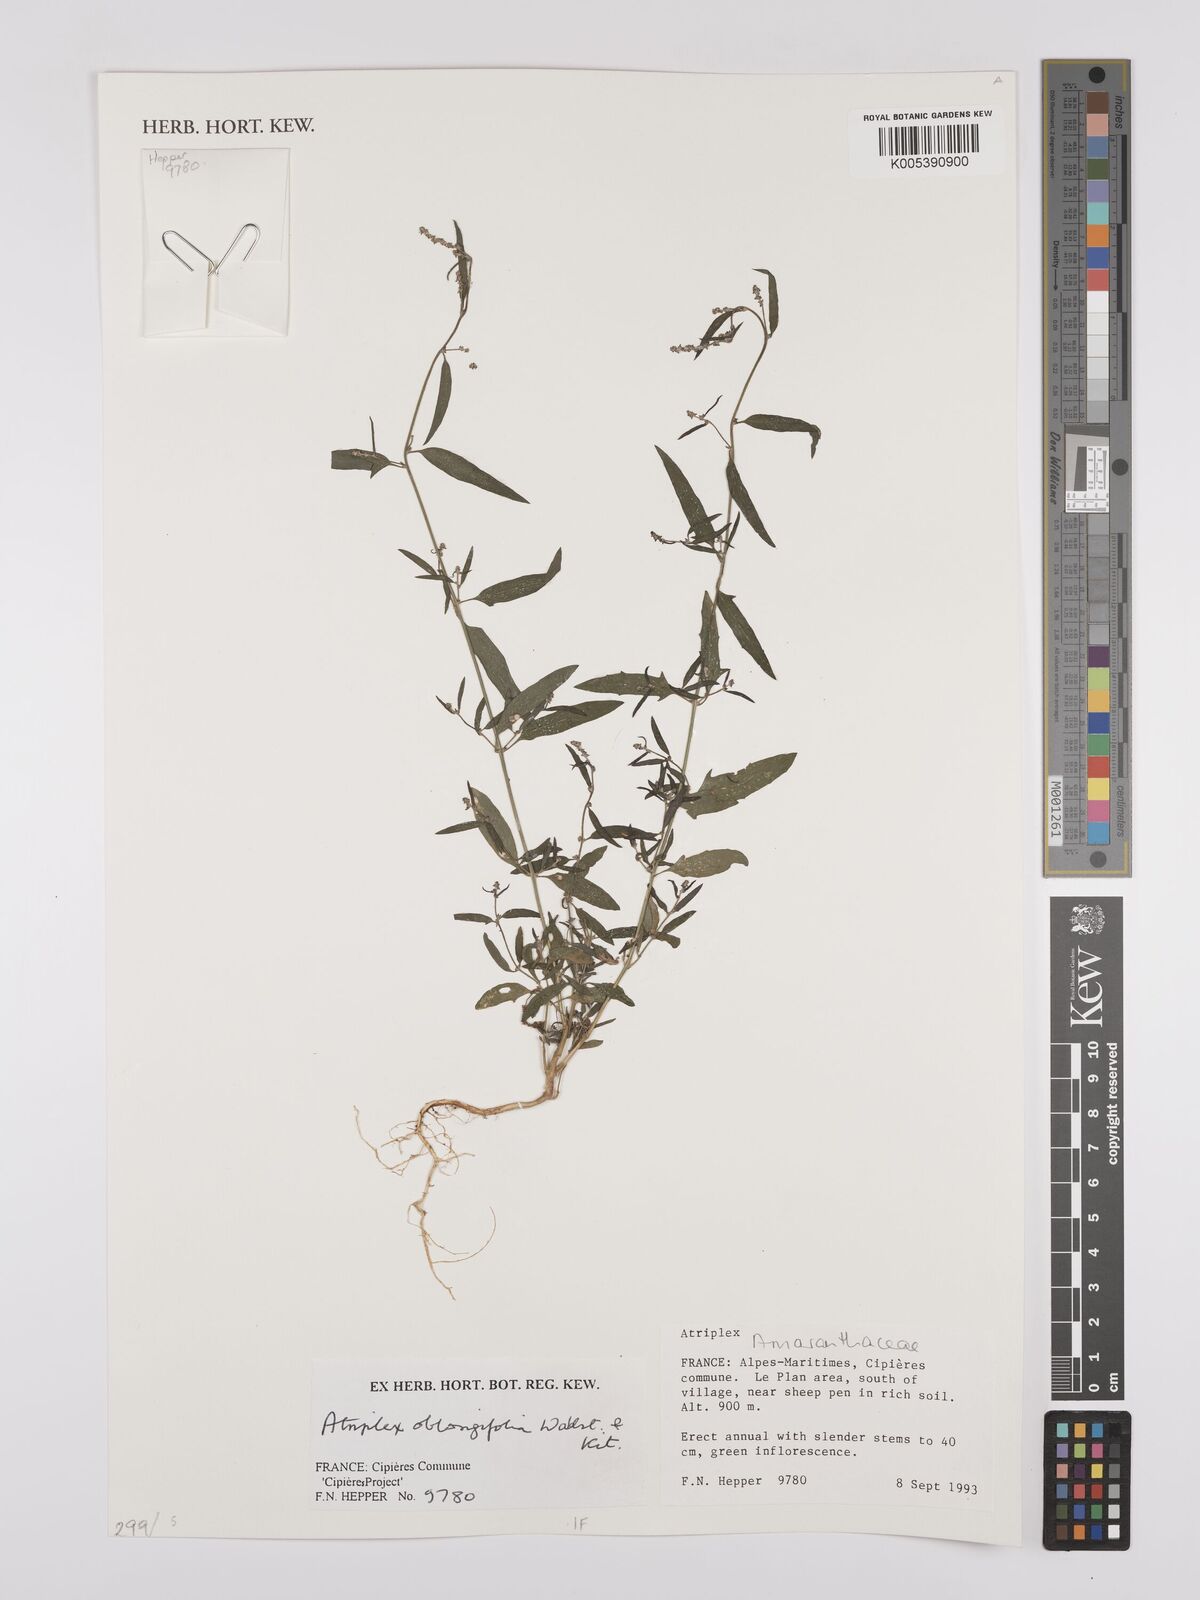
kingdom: Plantae
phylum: Tracheophyta
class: Magnoliopsida
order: Caryophyllales
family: Amaranthaceae
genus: Atriplex
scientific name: Atriplex
